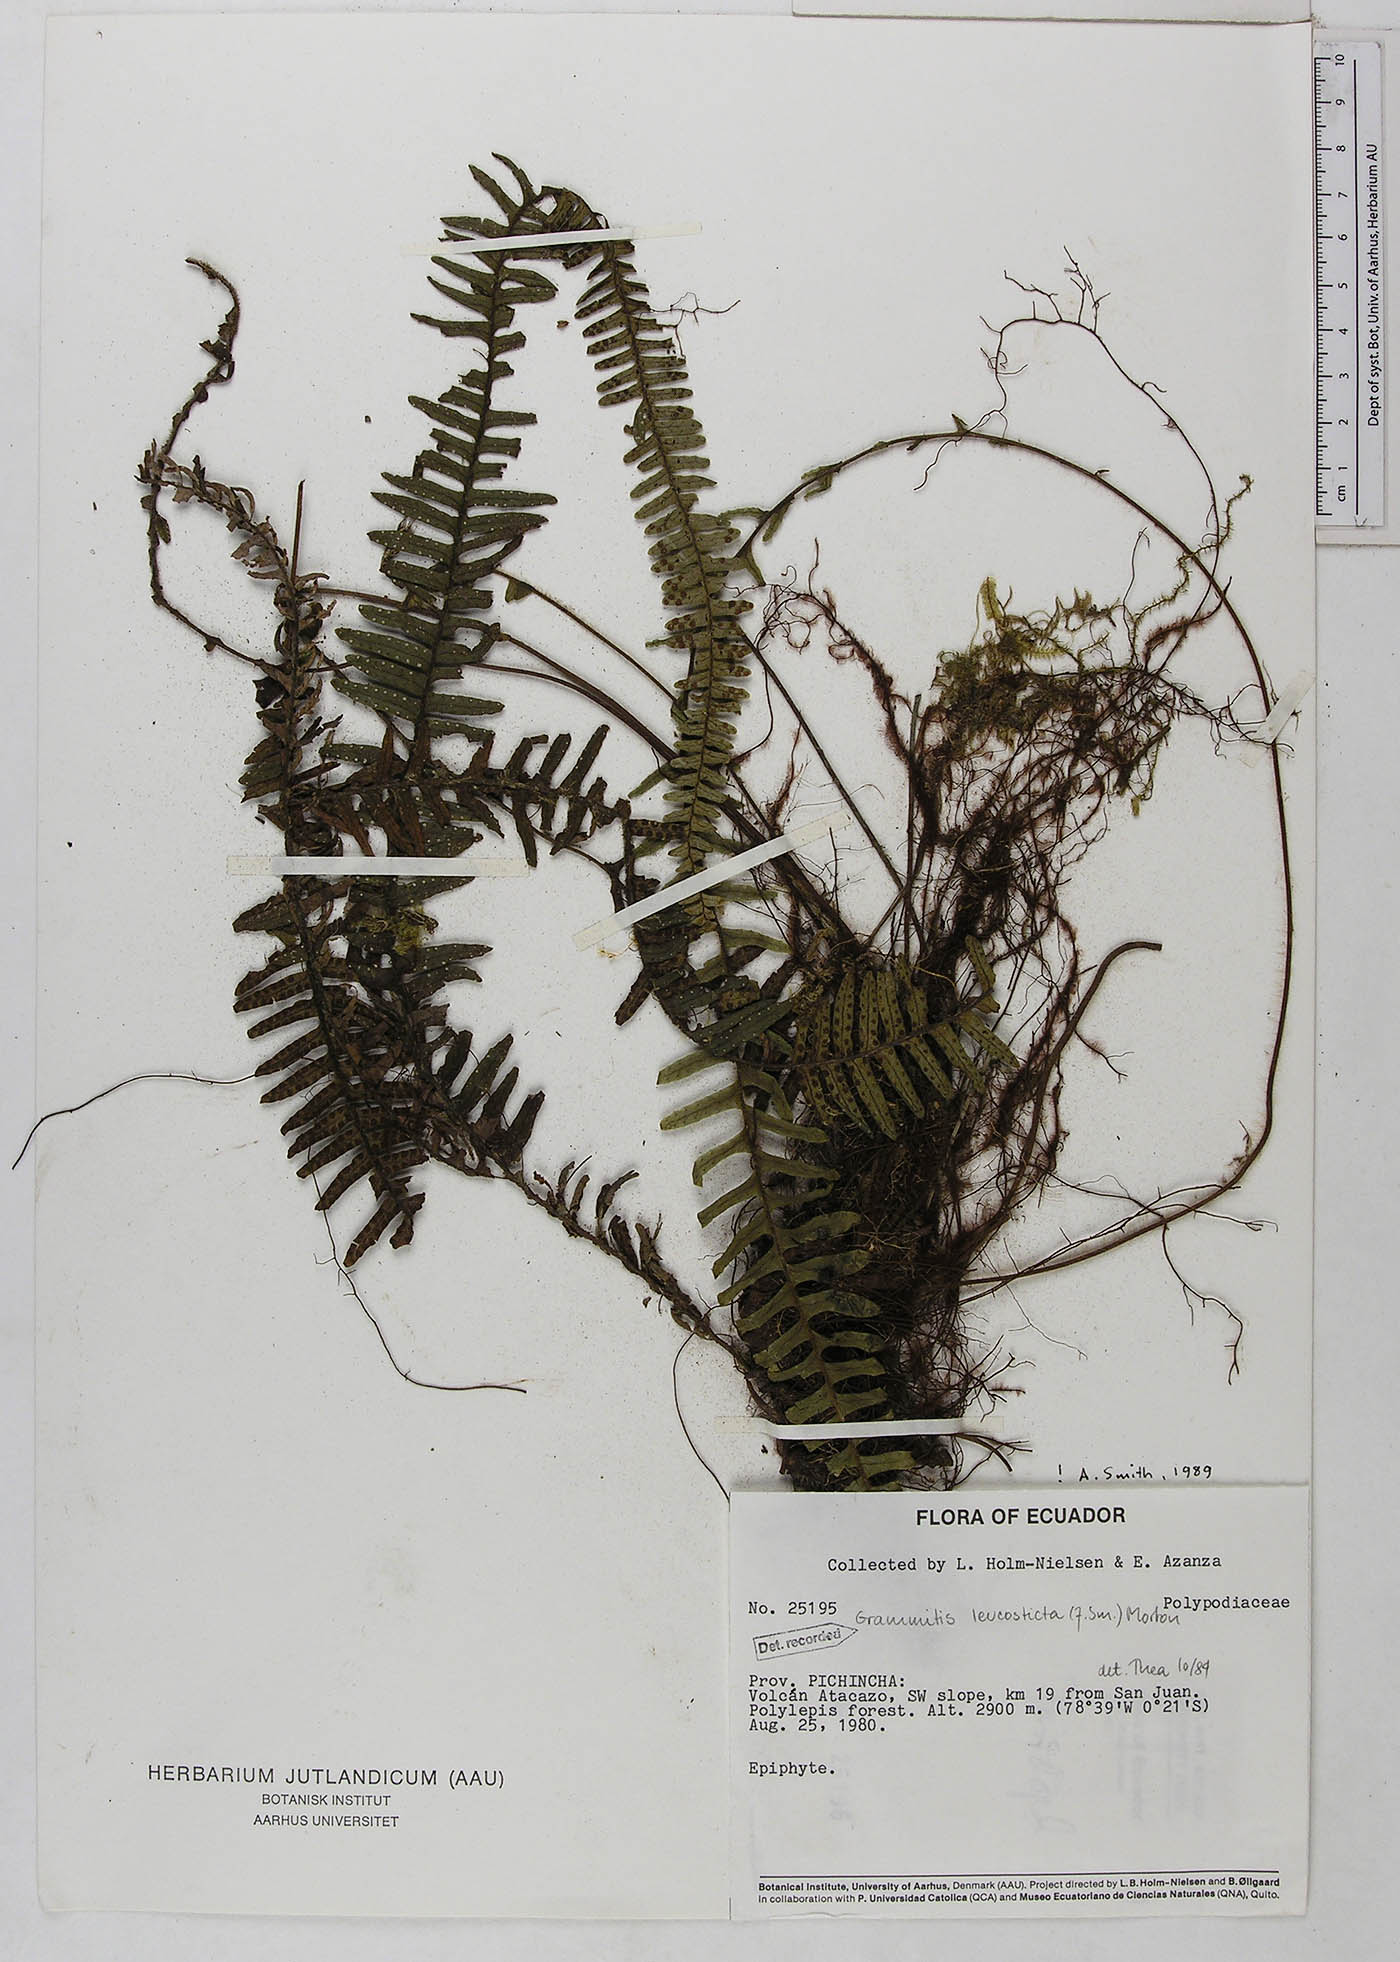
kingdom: Plantae
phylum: Tracheophyta
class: Polypodiopsida
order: Polypodiales
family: Polypodiaceae
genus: Mycopteris
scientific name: Mycopteris leucosticta
